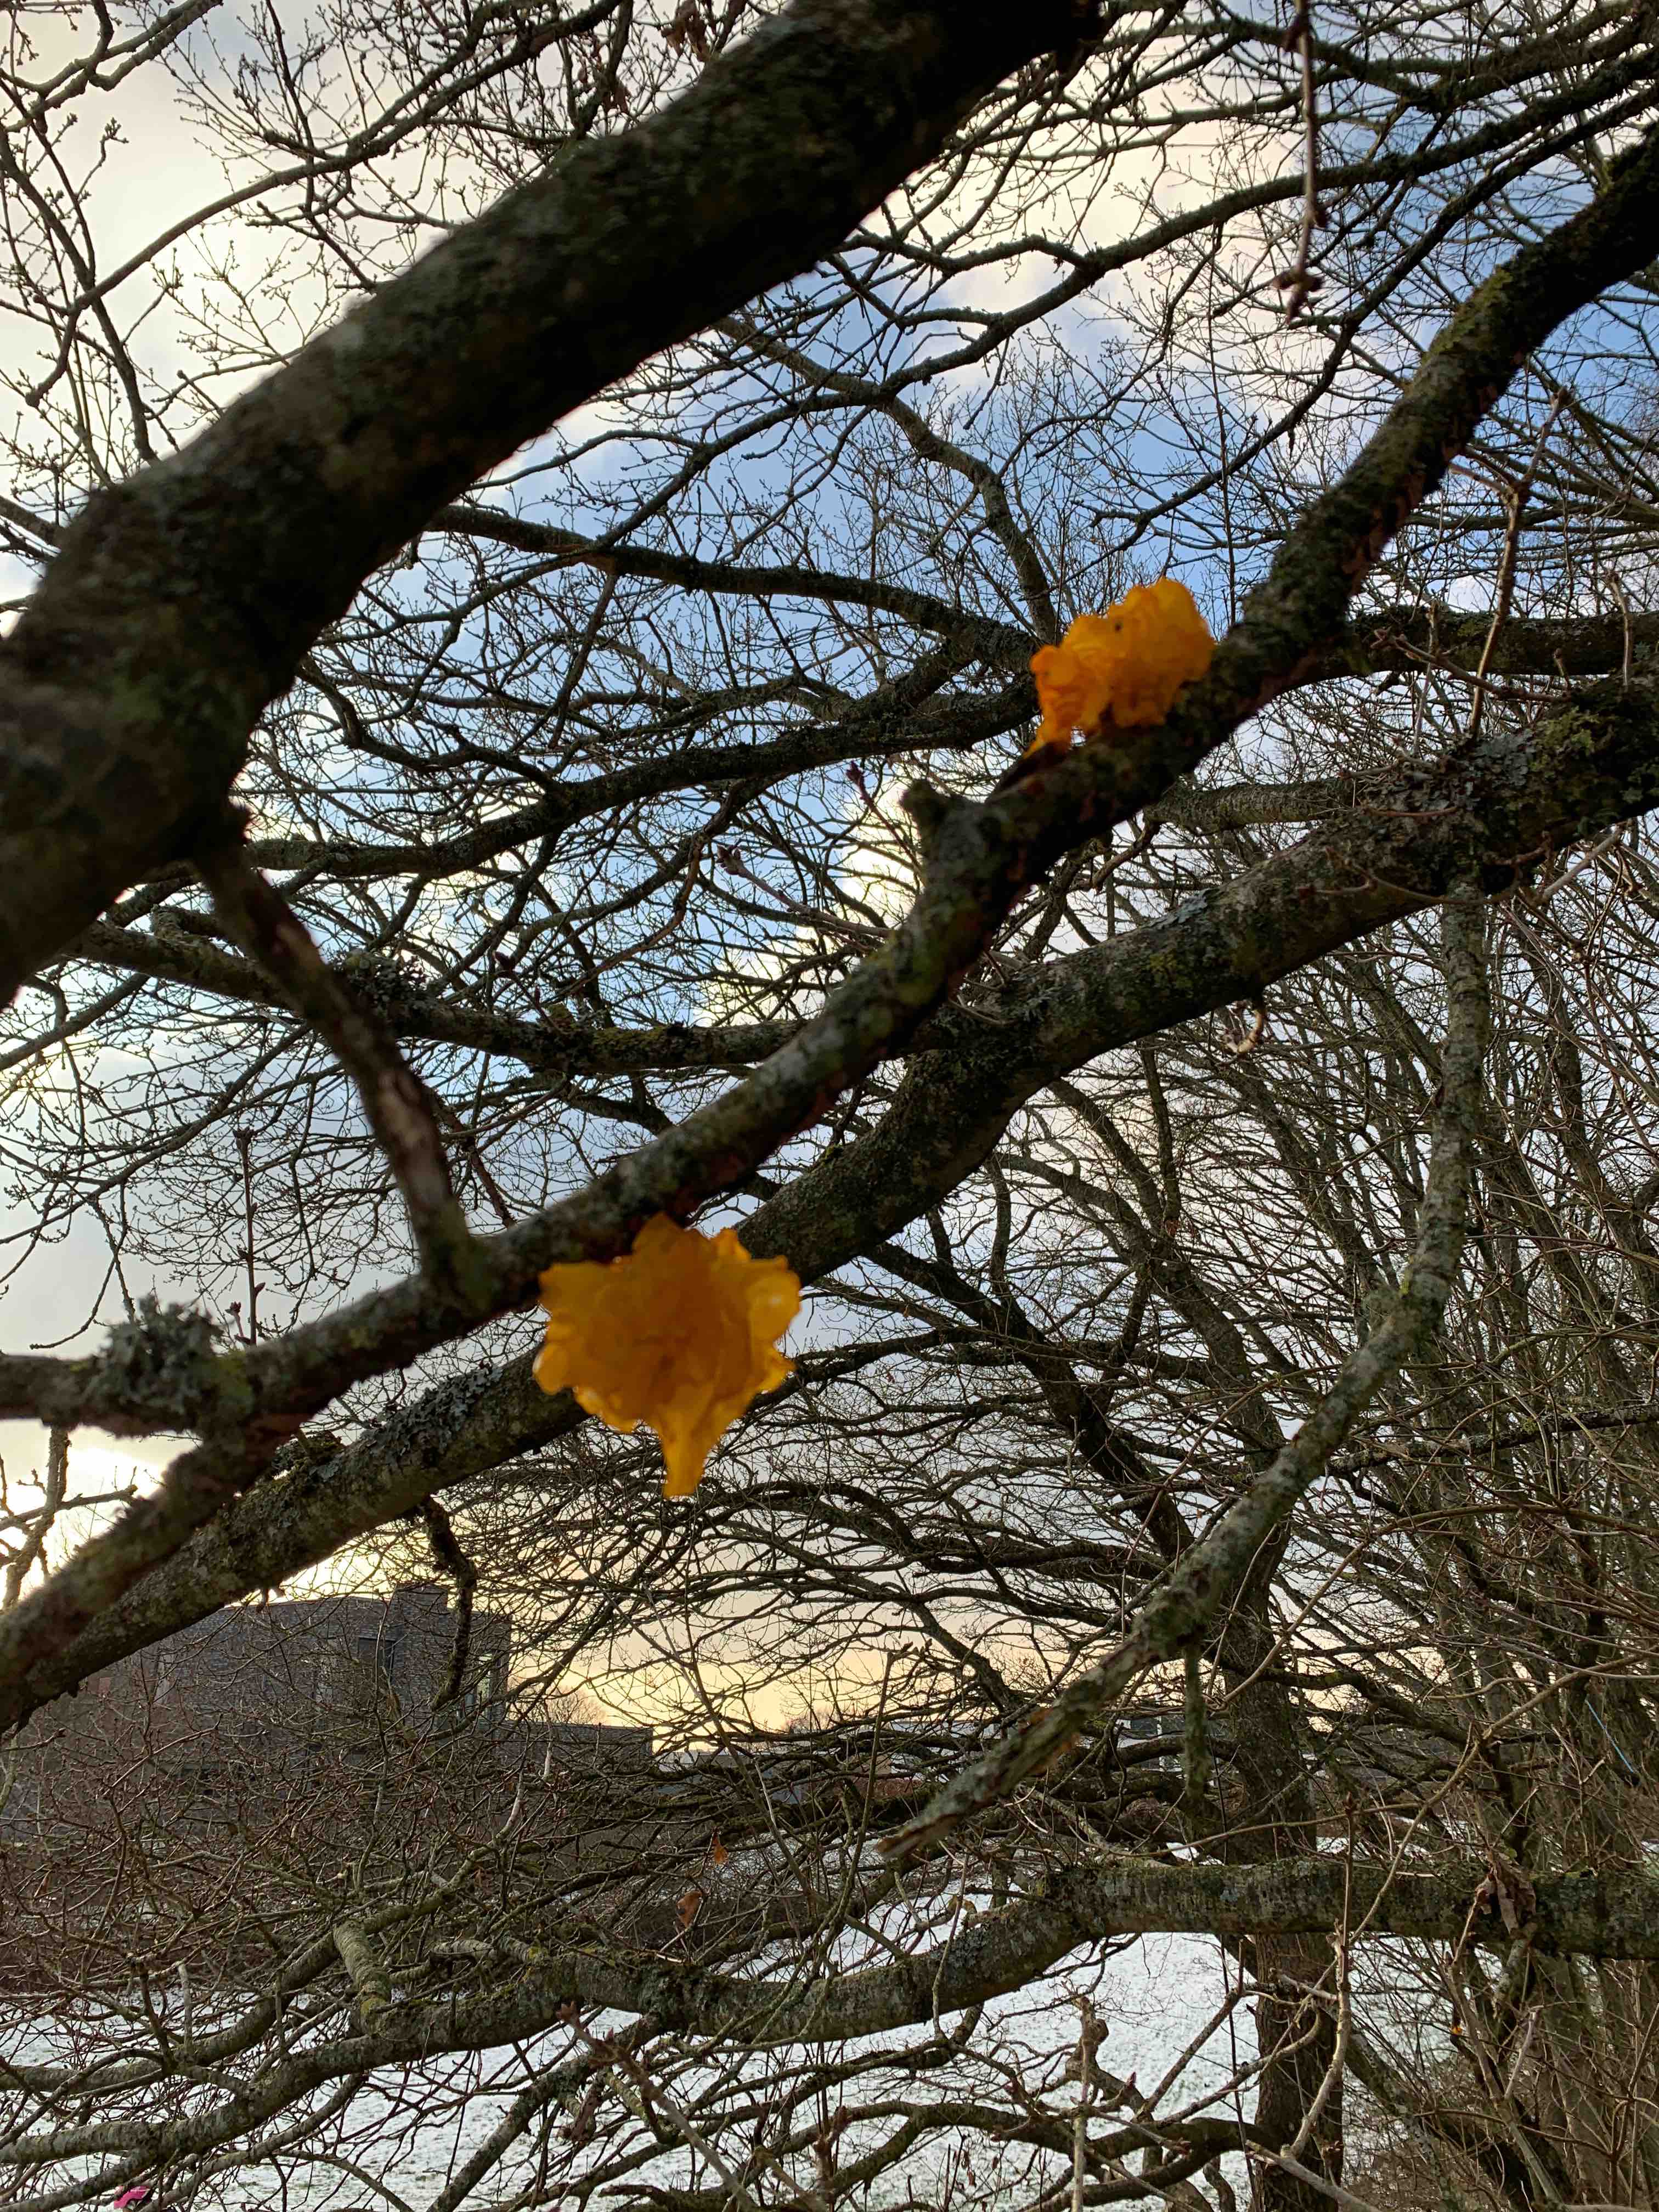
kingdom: Fungi
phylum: Basidiomycota
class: Tremellomycetes
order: Tremellales
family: Tremellaceae
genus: Tremella
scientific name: Tremella mesenterica
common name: gul bævresvamp
